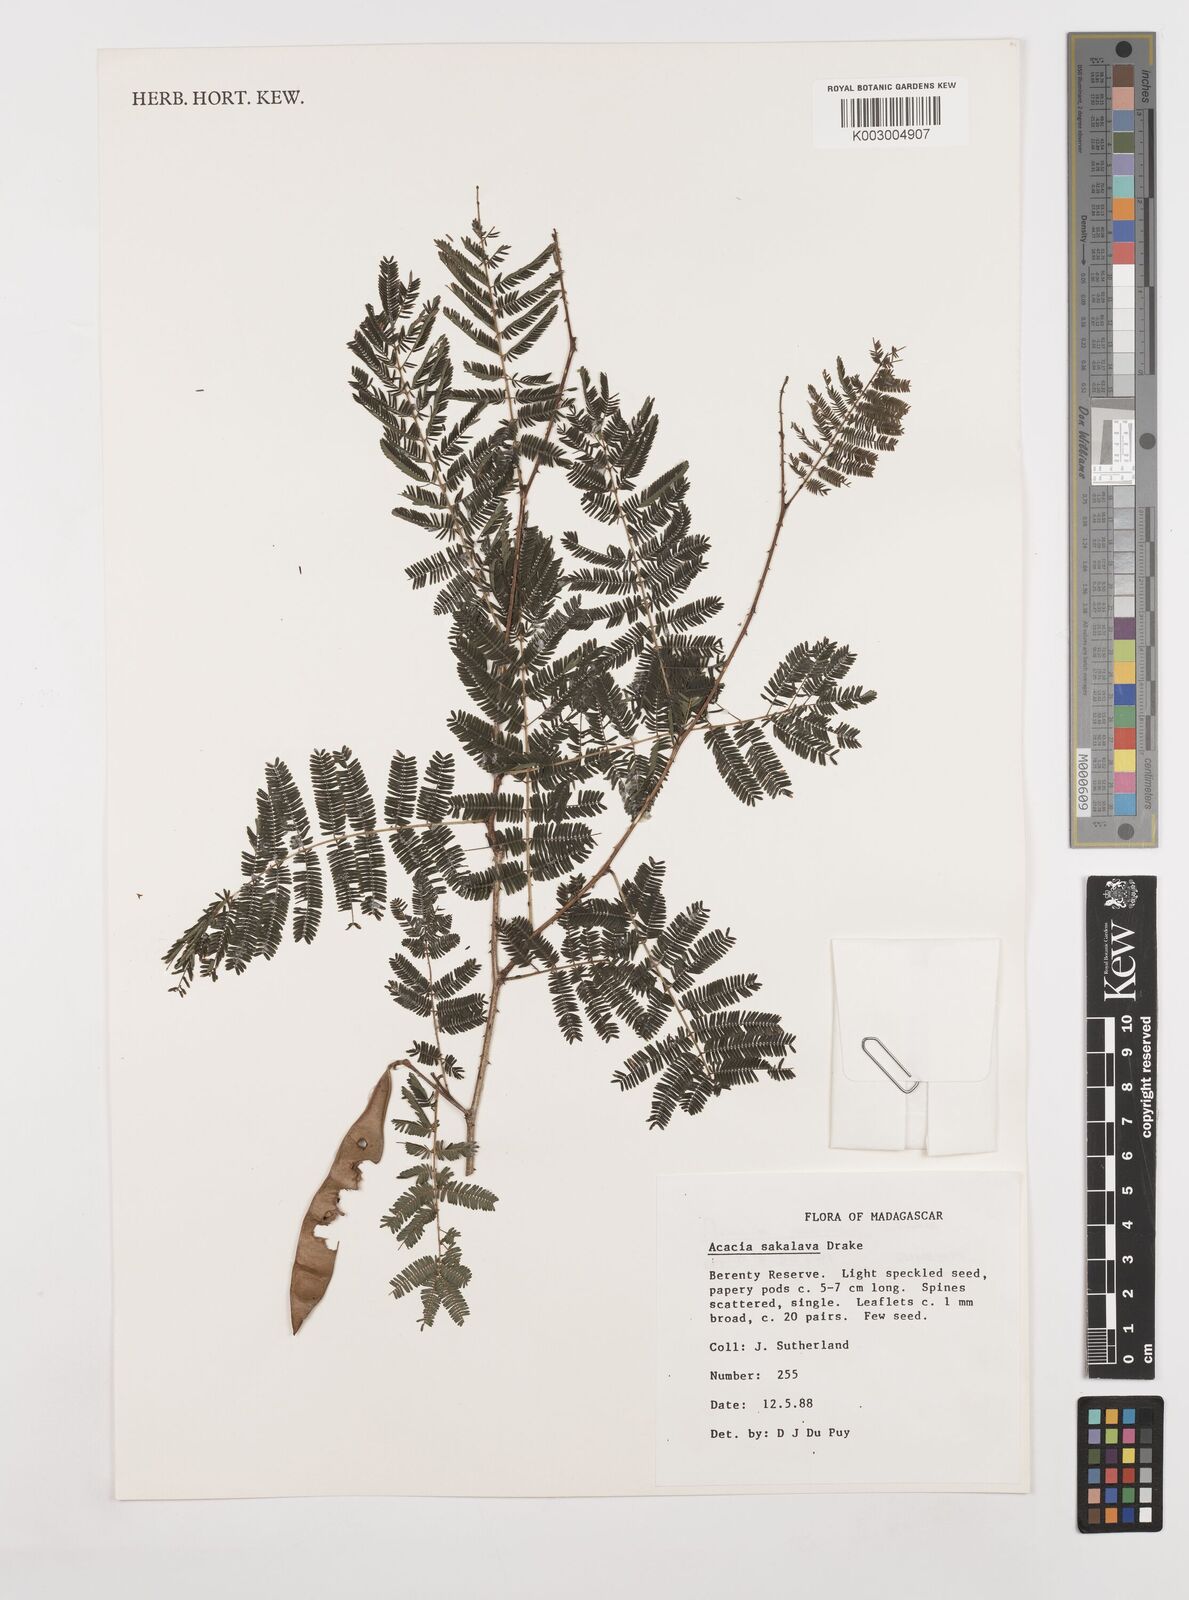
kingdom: Plantae
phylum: Tracheophyta
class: Magnoliopsida
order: Fabales
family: Fabaceae
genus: Senegalia
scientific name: Senegalia sakalava
